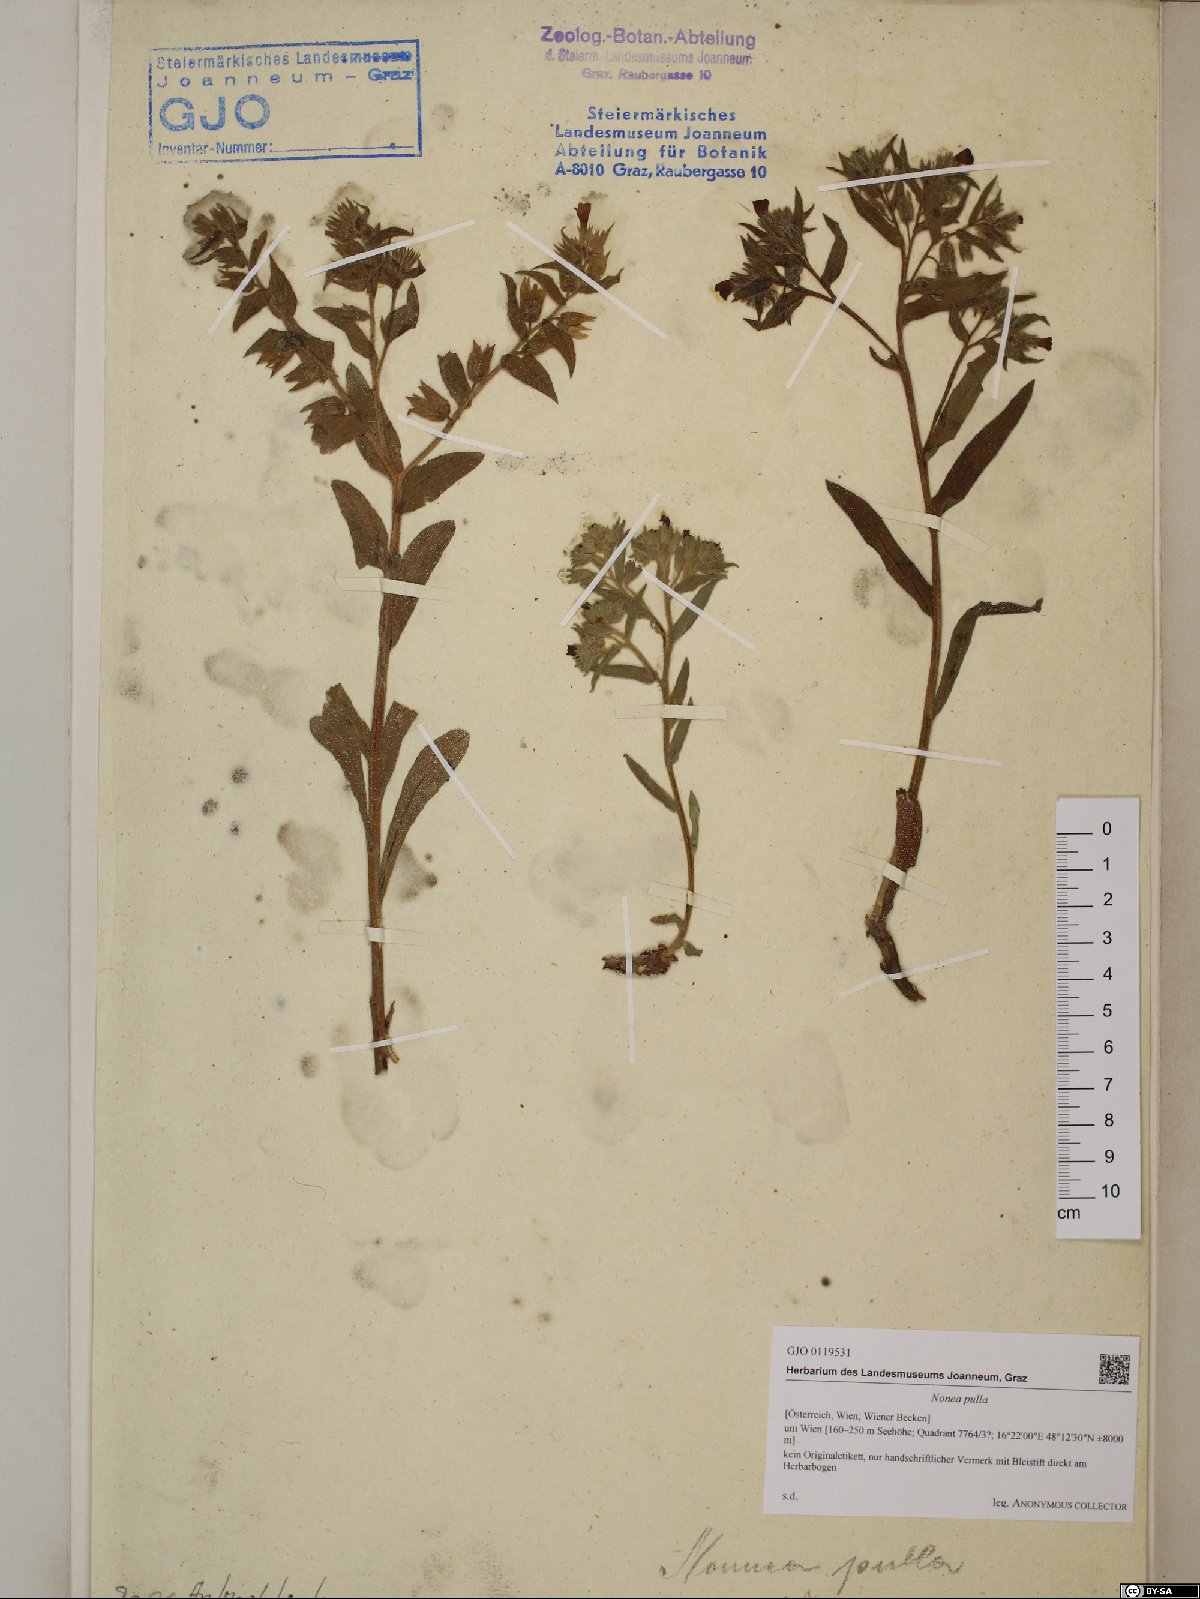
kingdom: Plantae
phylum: Tracheophyta
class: Magnoliopsida
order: Boraginales
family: Boraginaceae
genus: Nonea
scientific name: Nonea pulla
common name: Brown nonea
